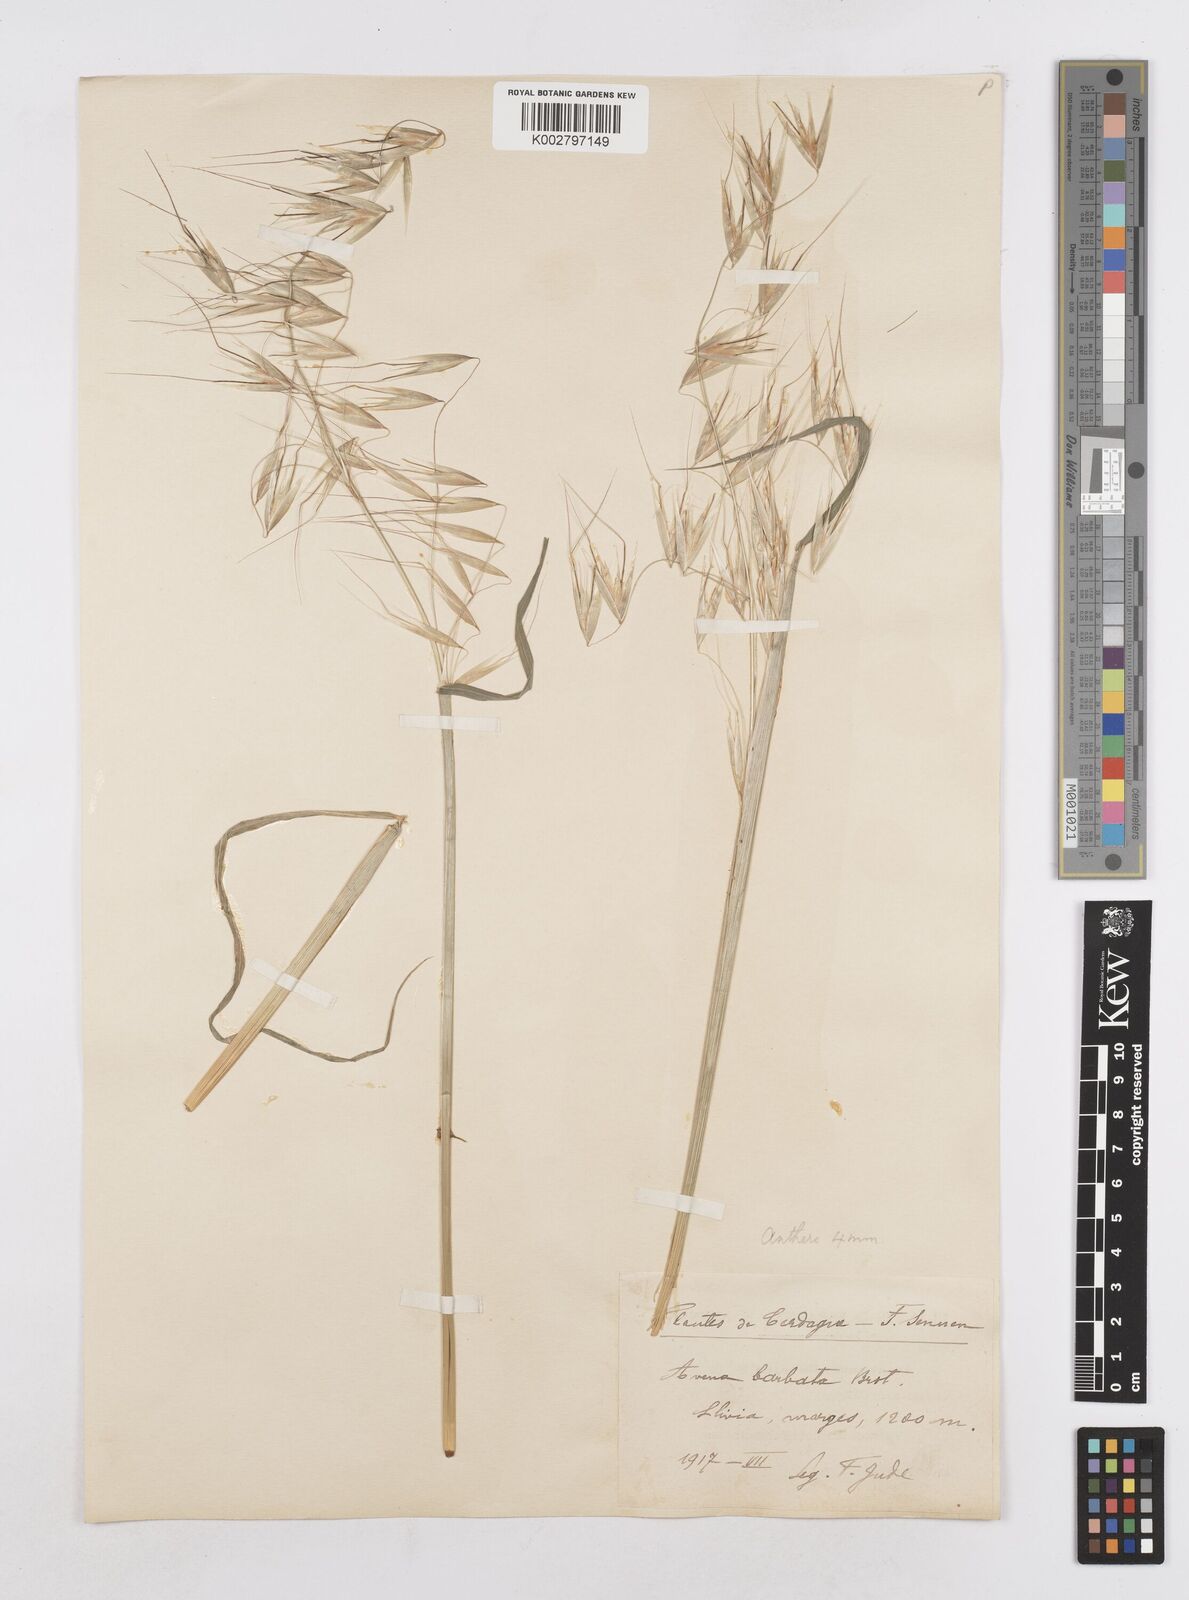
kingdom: Plantae
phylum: Tracheophyta
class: Liliopsida
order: Poales
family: Poaceae
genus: Avena
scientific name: Avena
